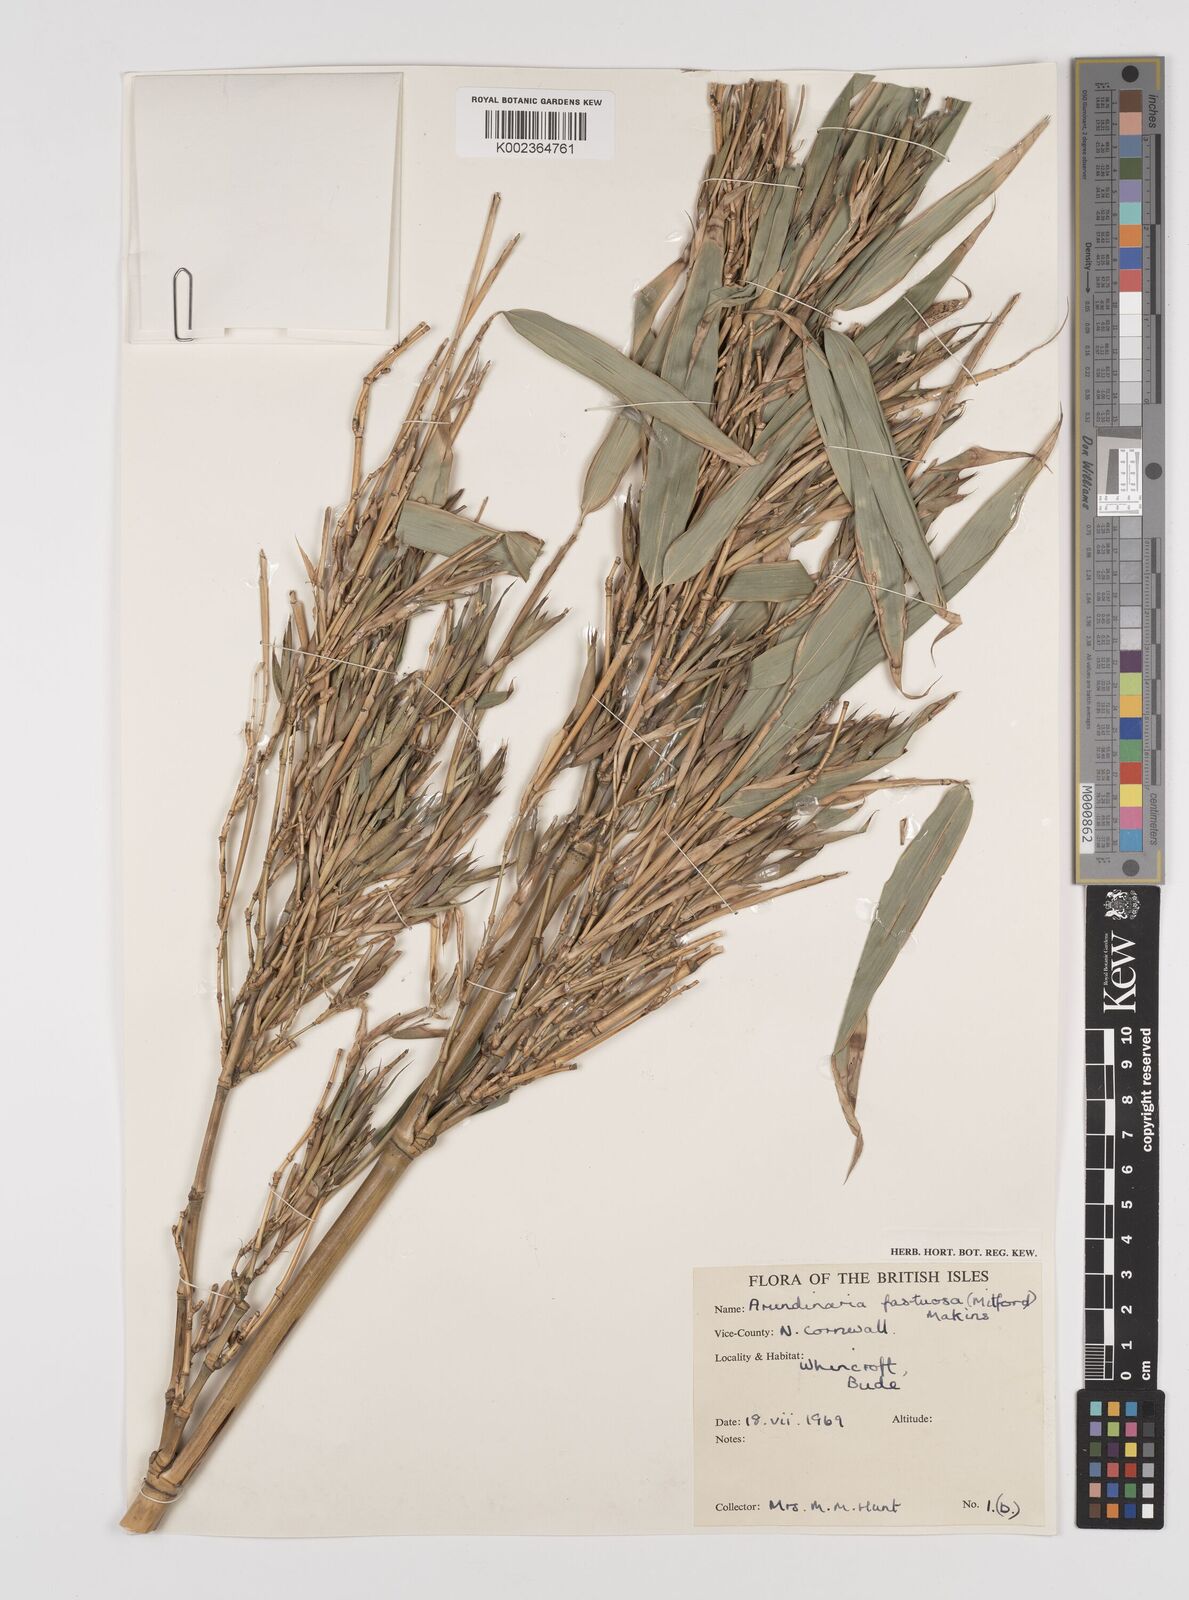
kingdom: Plantae
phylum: Tracheophyta
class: Liliopsida
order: Poales
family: Poaceae
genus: Semiarundinaria
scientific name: Semiarundinaria fastuosa
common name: Narihira bamboo
